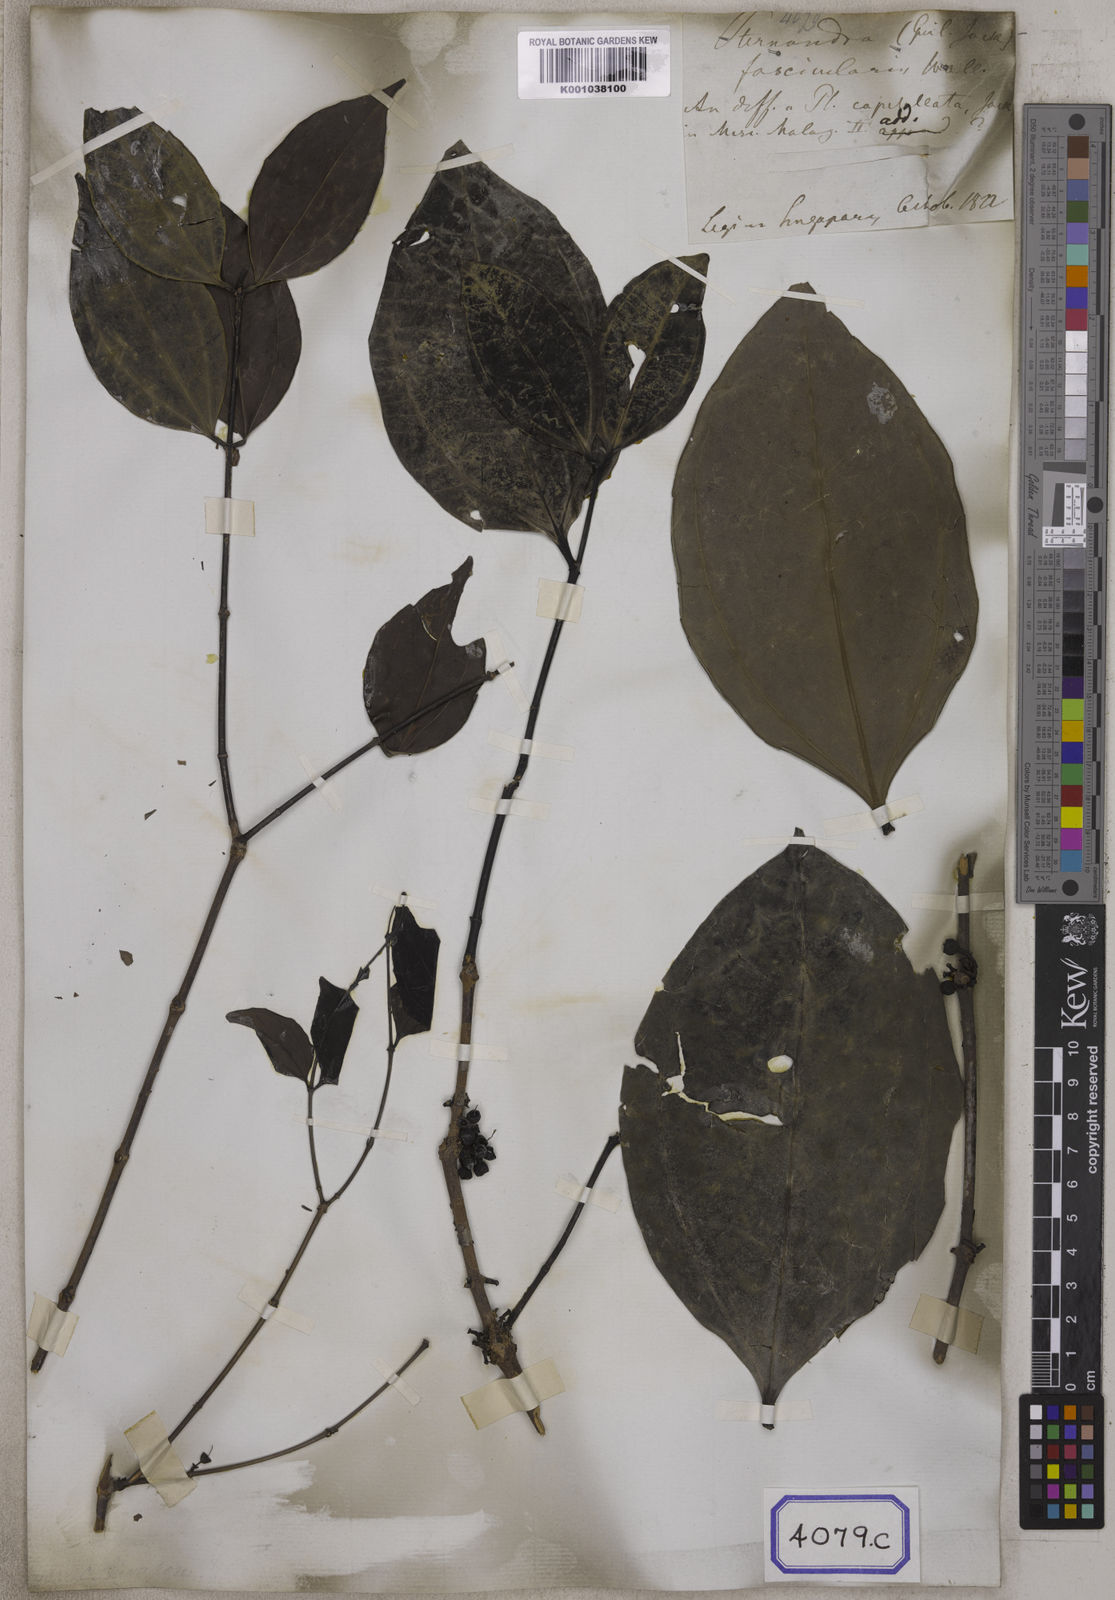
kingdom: Plantae
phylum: Tracheophyta
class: Magnoliopsida
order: Myrtales
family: Melastomataceae
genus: Pternandra
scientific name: Pternandra coerulescens
